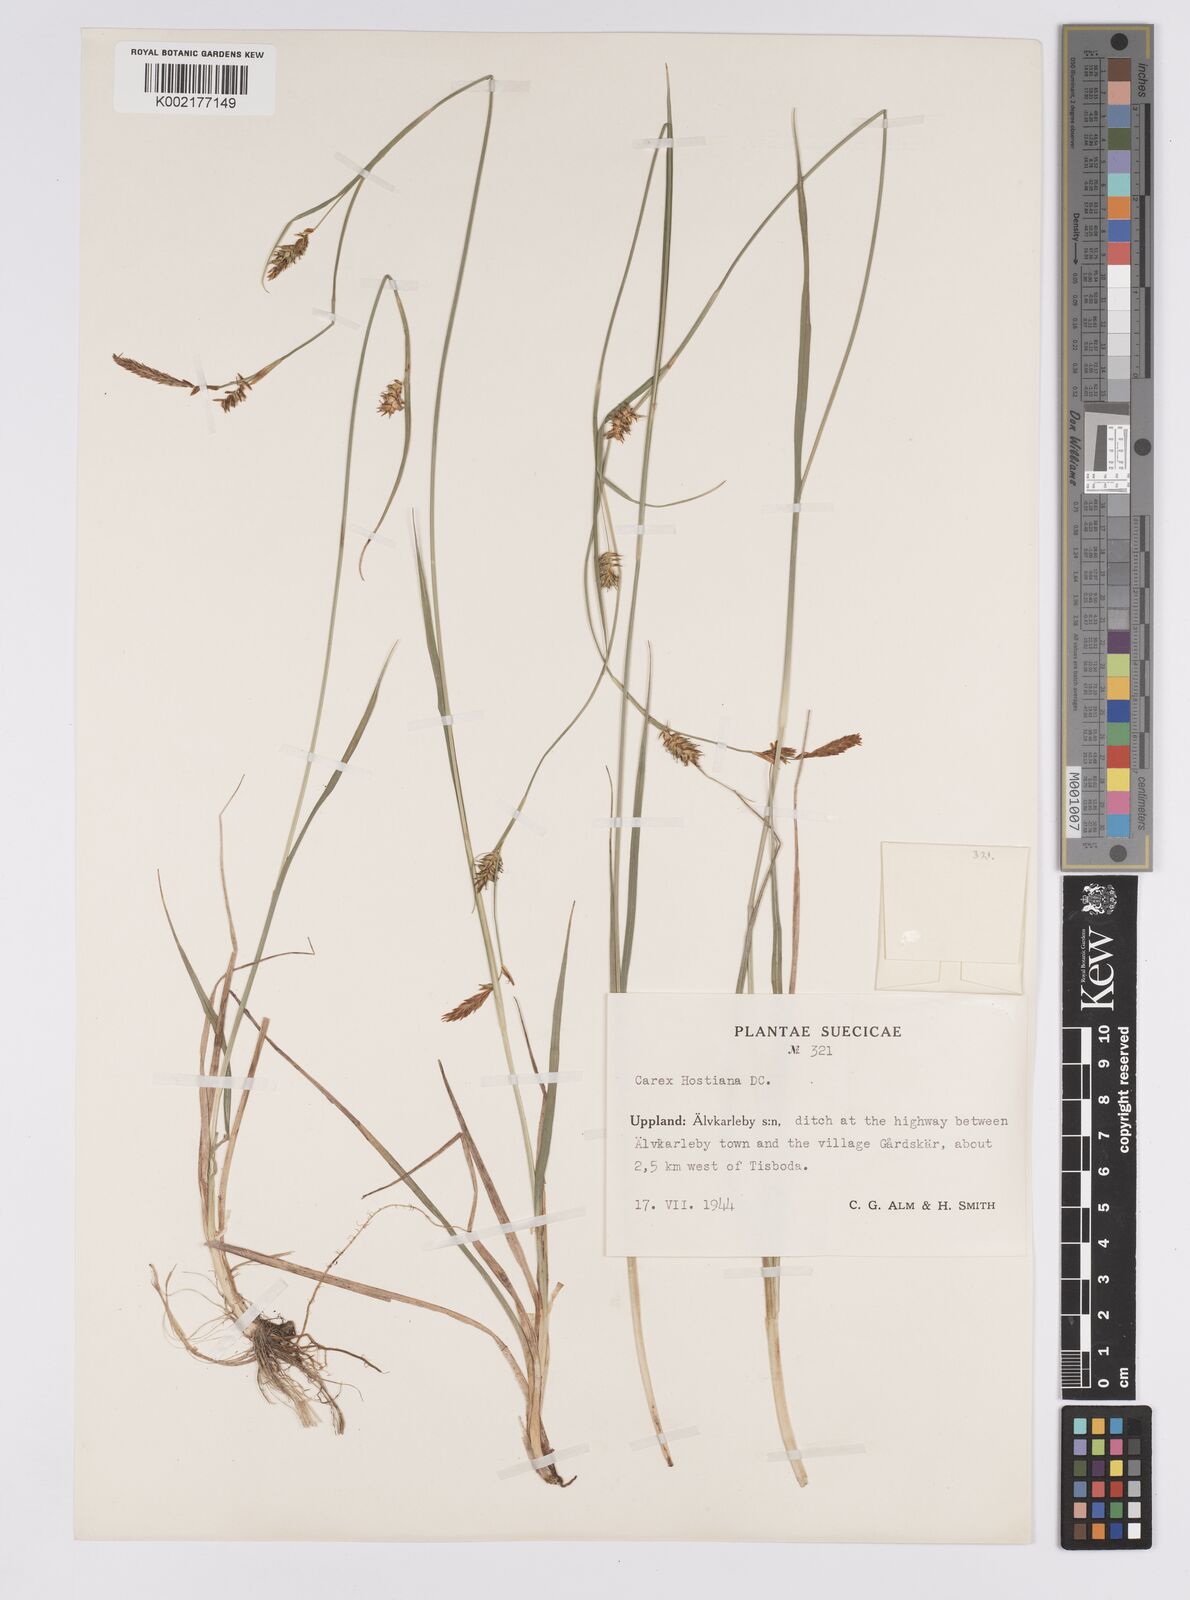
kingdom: Plantae
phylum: Tracheophyta
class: Liliopsida
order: Poales
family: Cyperaceae
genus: Carex
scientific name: Carex hostiana
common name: Tawny sedge
